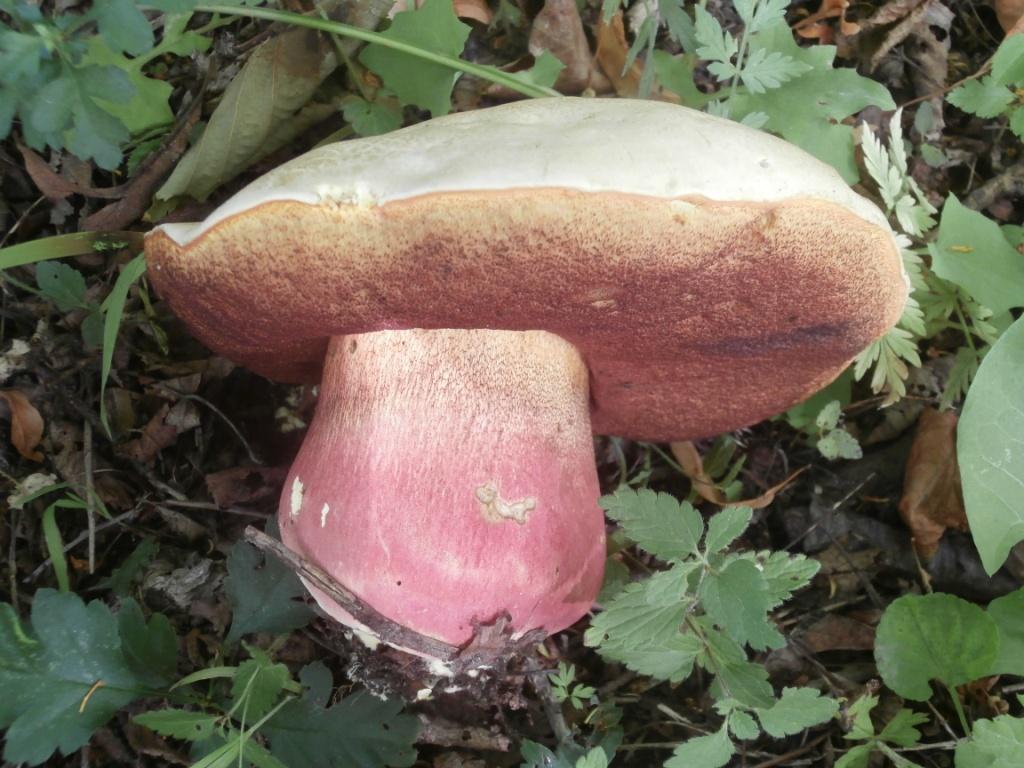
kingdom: Fungi
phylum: Basidiomycota
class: Agaricomycetes
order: Boletales
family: Boletaceae
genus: Rubroboletus
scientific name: Rubroboletus satanas
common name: Satans rørhat
